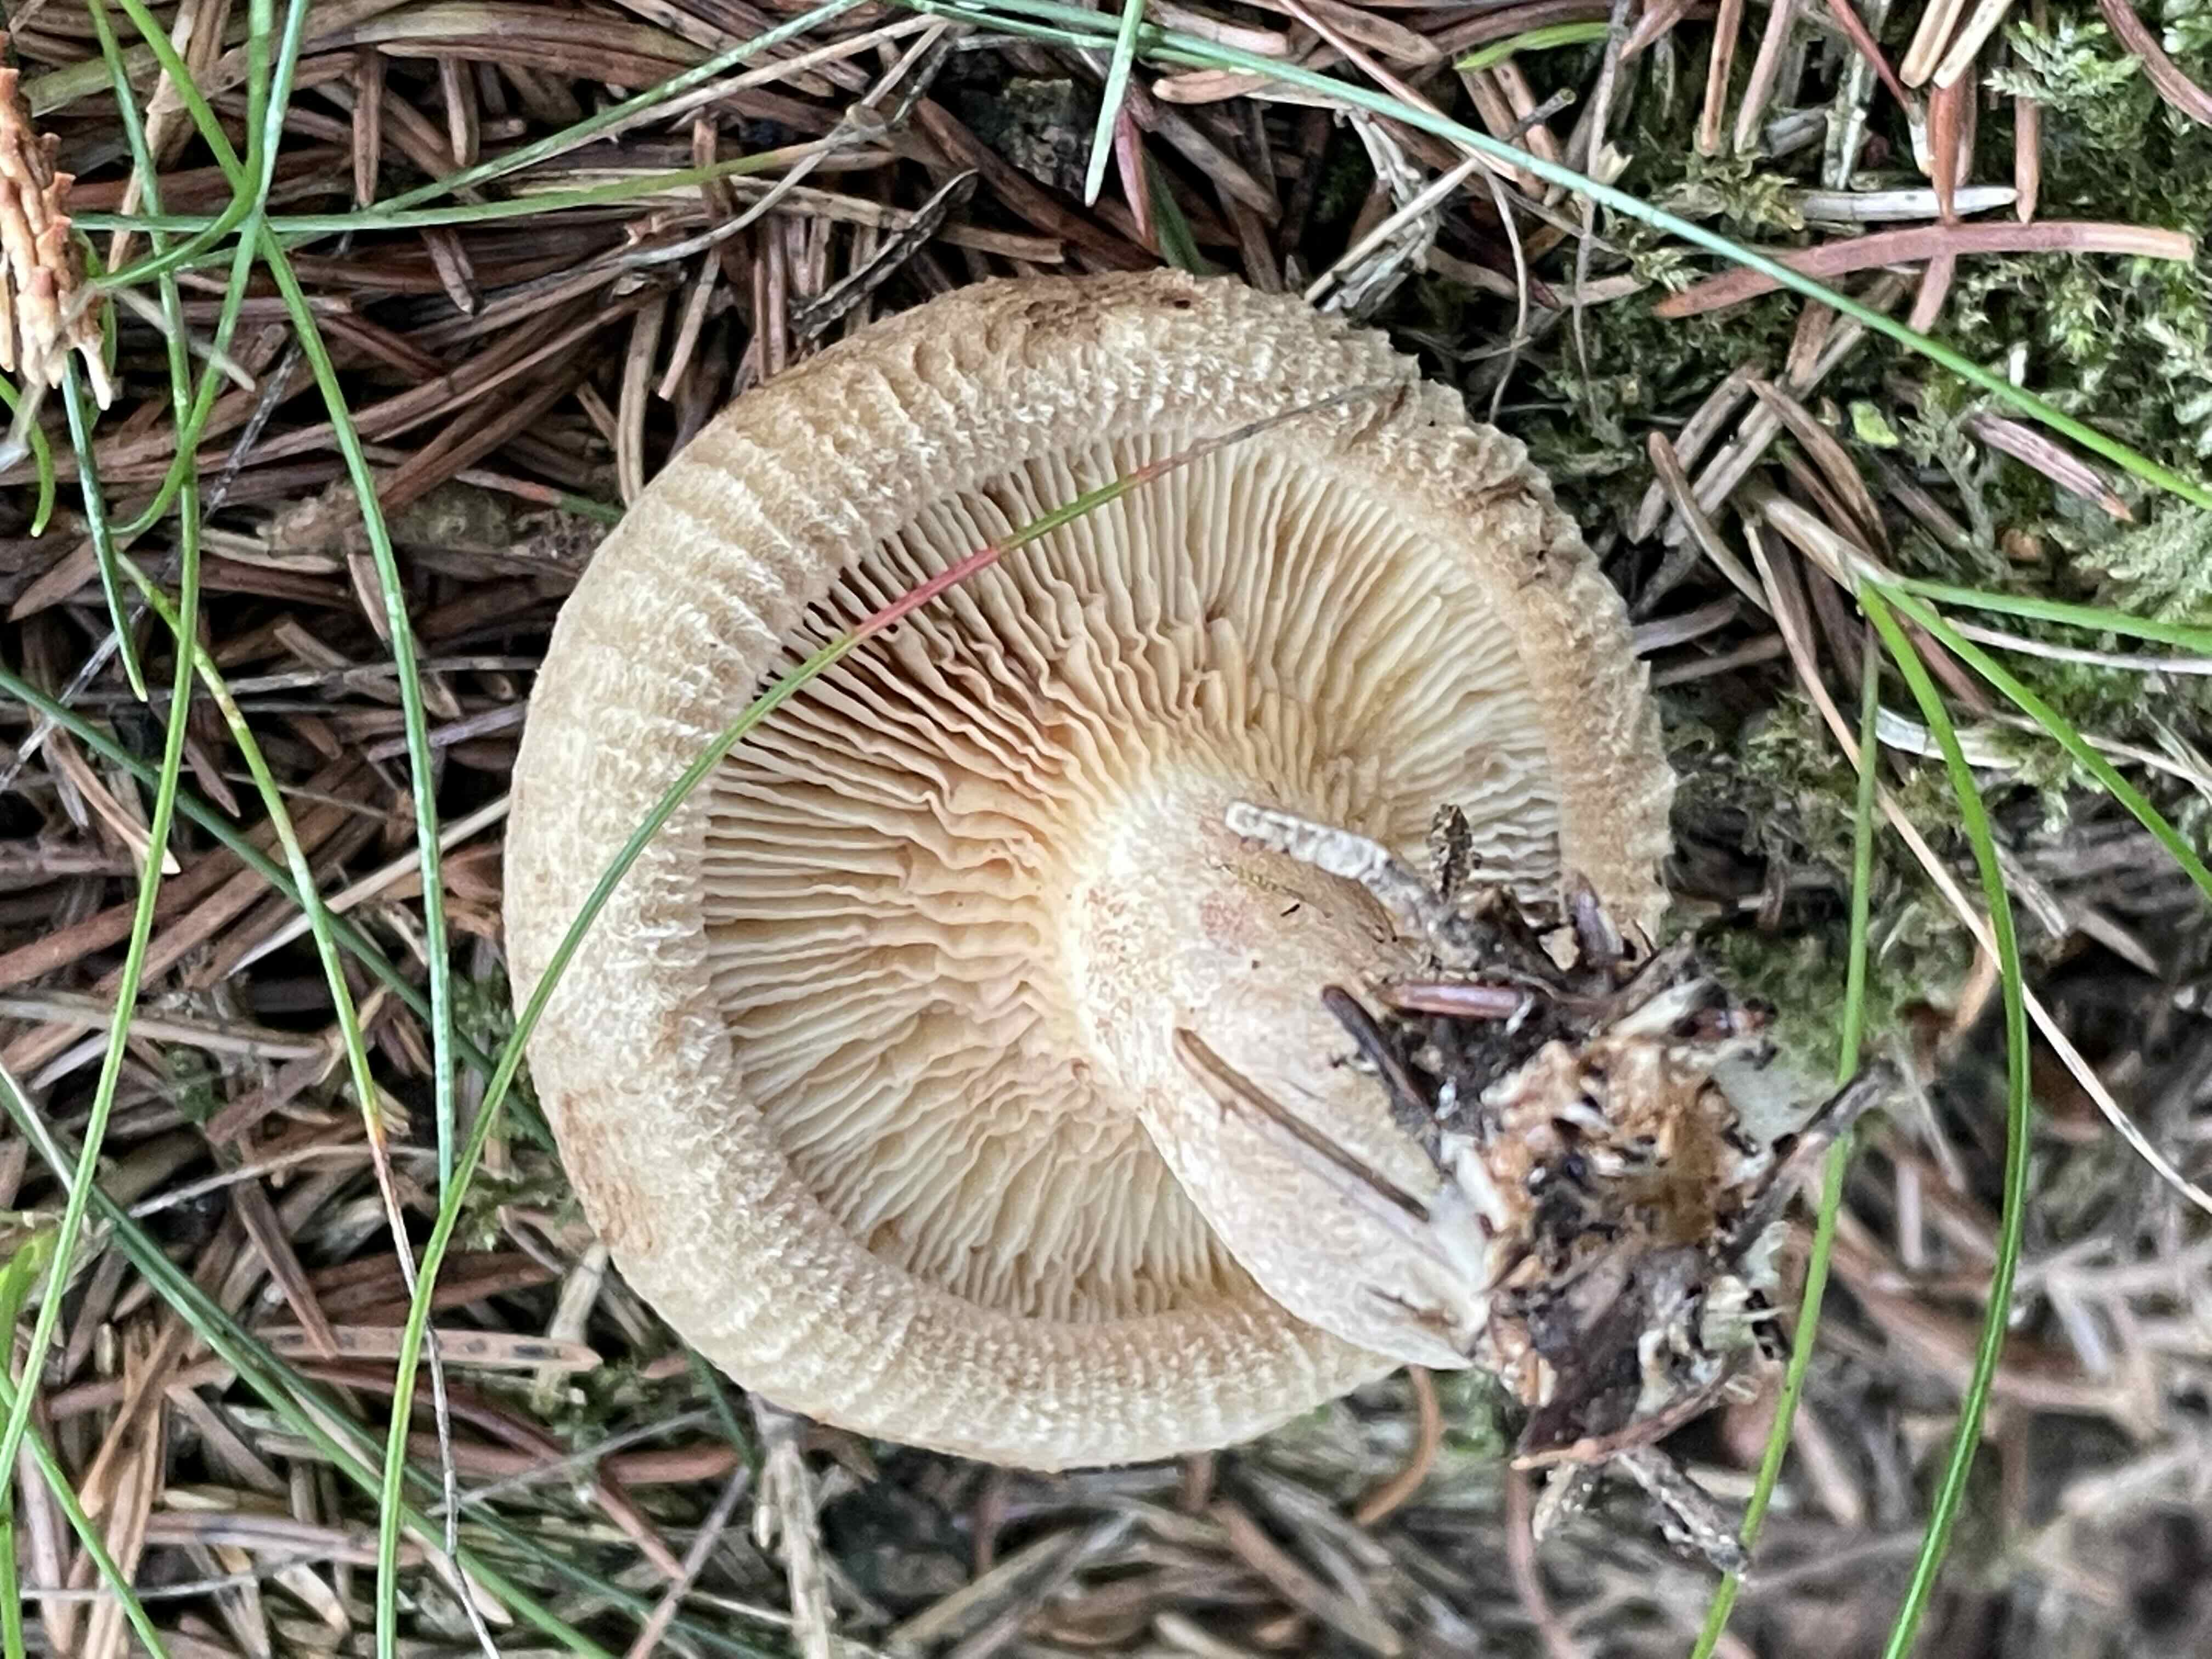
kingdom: Fungi
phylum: Basidiomycota
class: Agaricomycetes
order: Boletales
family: Paxillaceae
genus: Paxillus
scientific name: Paxillus involutus
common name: almindelig netbladhat
